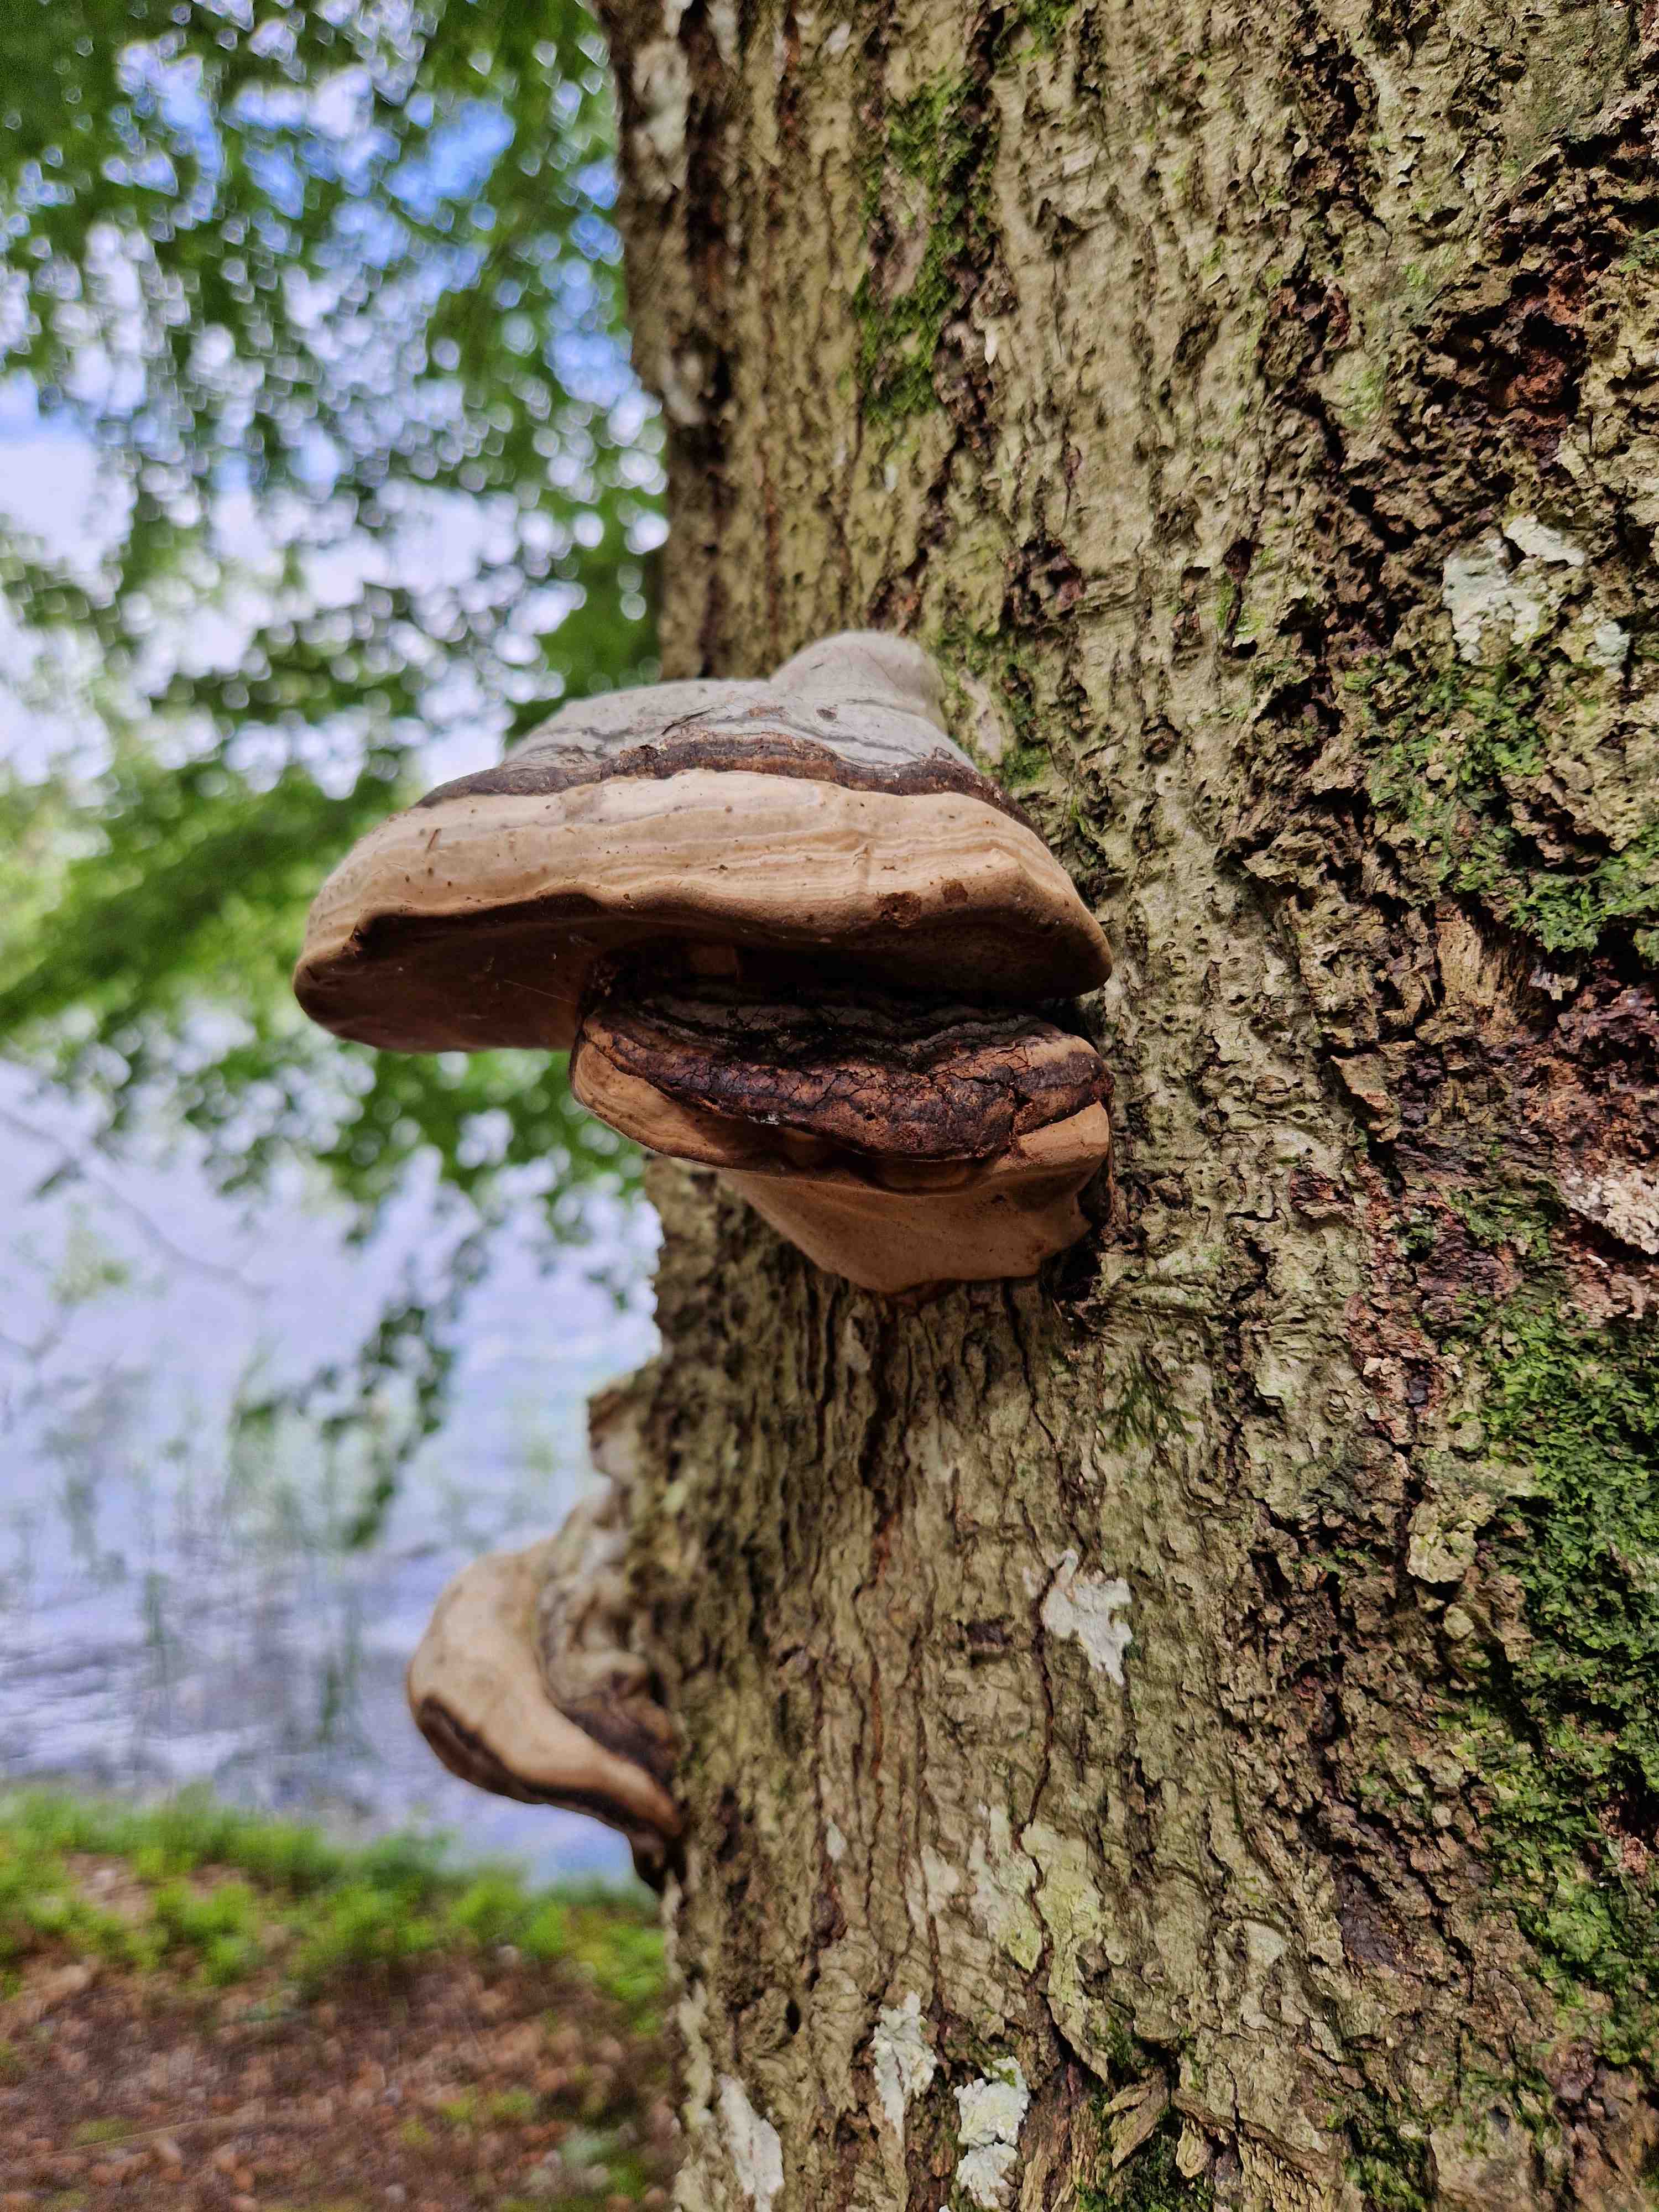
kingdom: Fungi
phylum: Basidiomycota
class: Agaricomycetes
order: Polyporales
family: Polyporaceae
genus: Fomes
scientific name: Fomes fomentarius
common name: tøndersvamp
